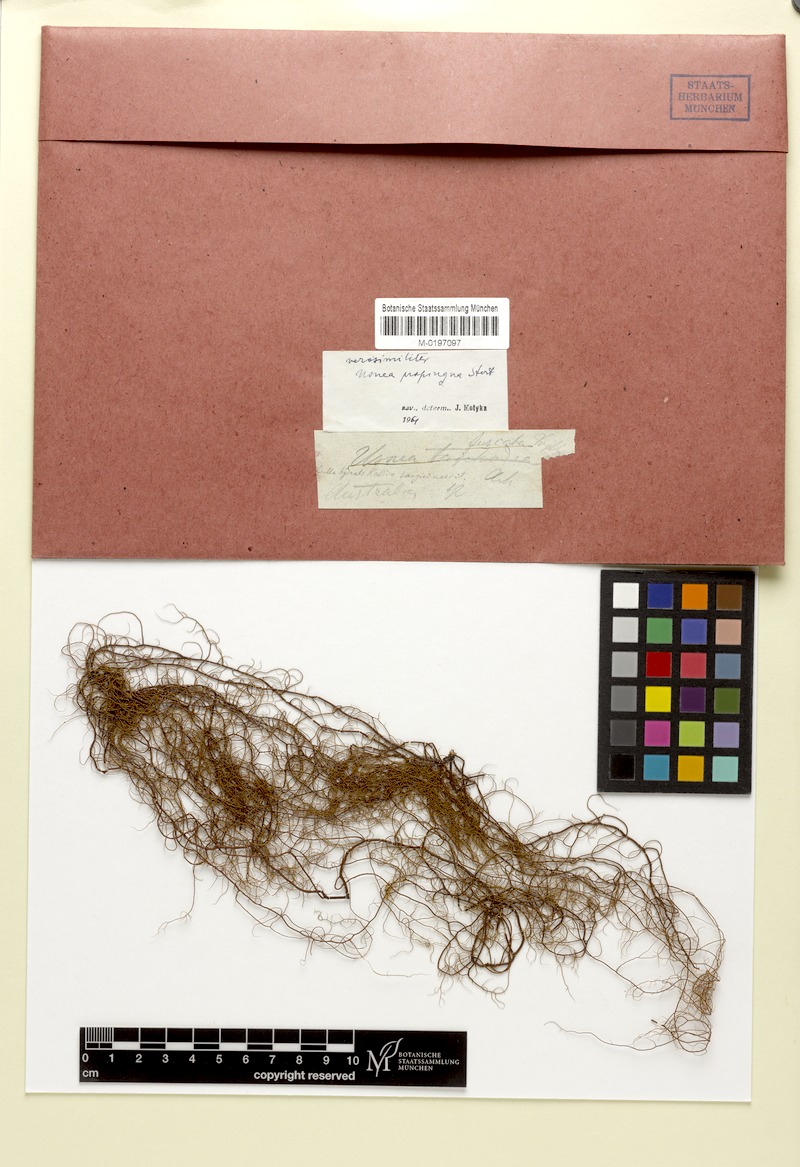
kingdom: Fungi
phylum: Ascomycota
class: Lecanoromycetes
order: Lecanorales
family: Parmeliaceae
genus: Usnea
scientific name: Usnea nidifica
